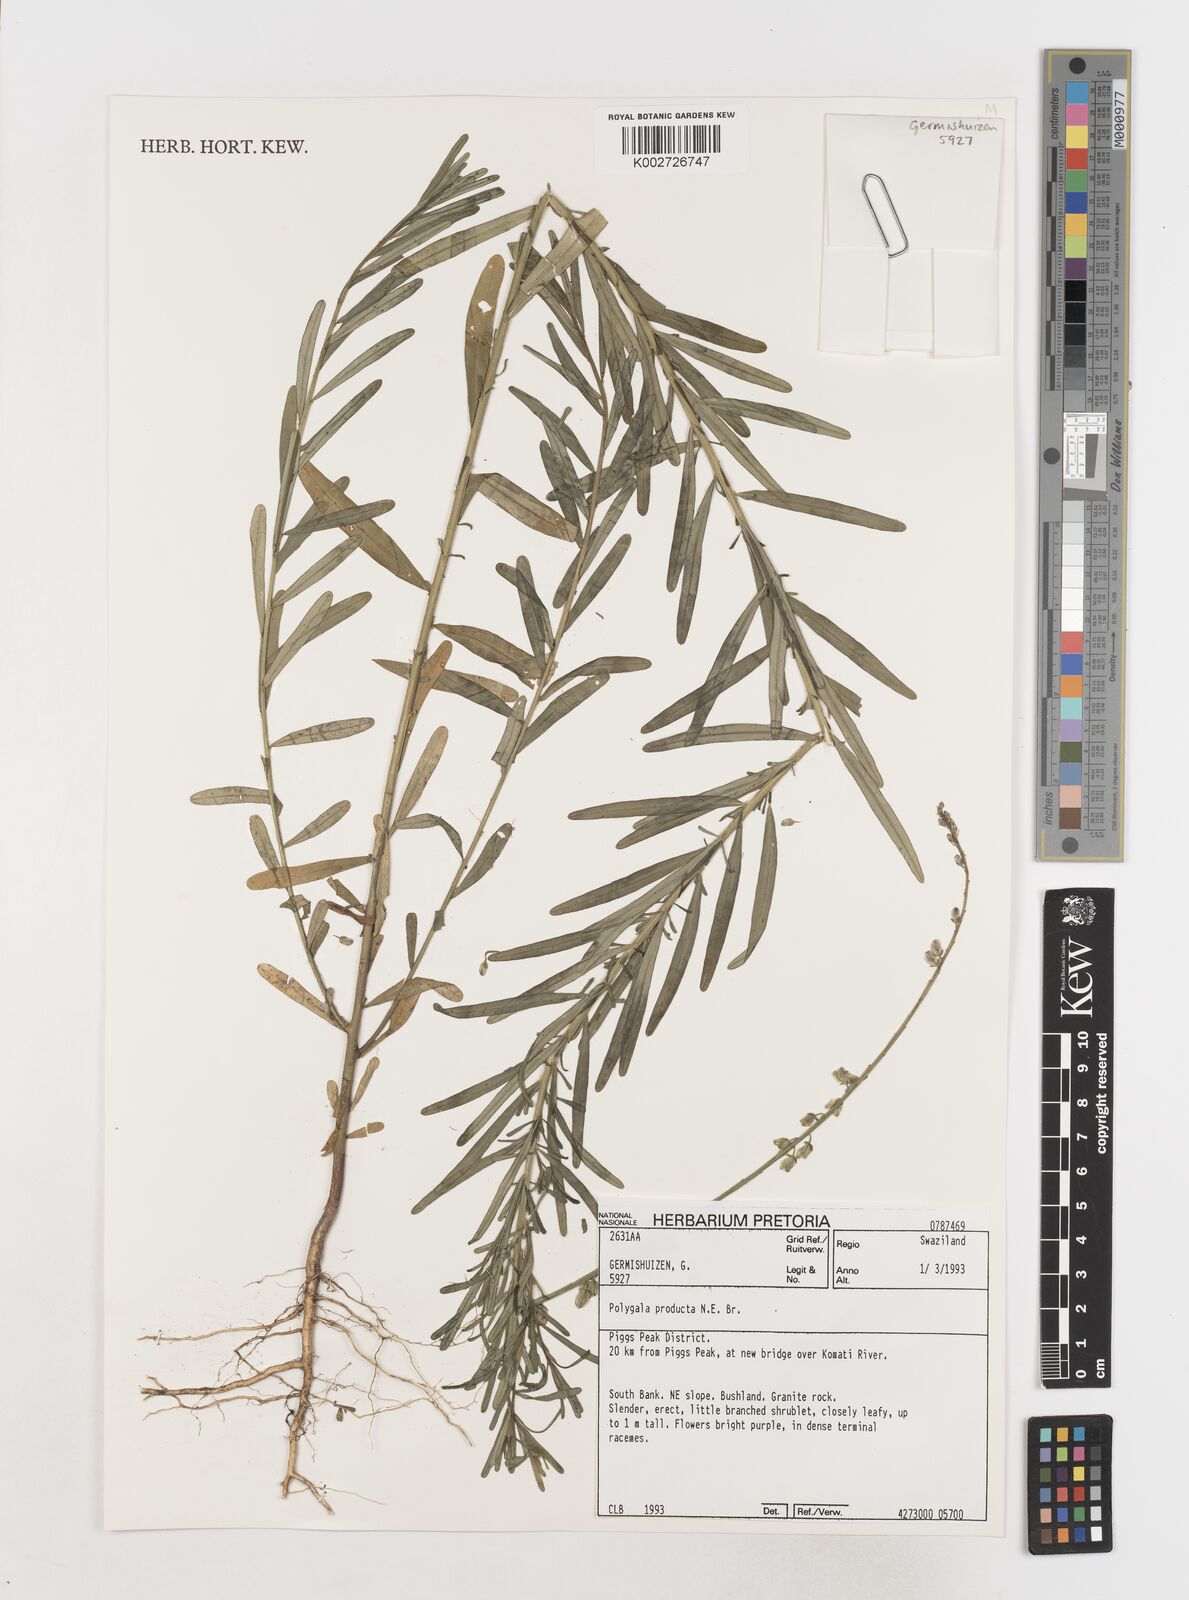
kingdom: Plantae
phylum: Tracheophyta
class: Magnoliopsida
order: Fabales
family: Polygalaceae
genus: Polygala
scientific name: Polygala producta
